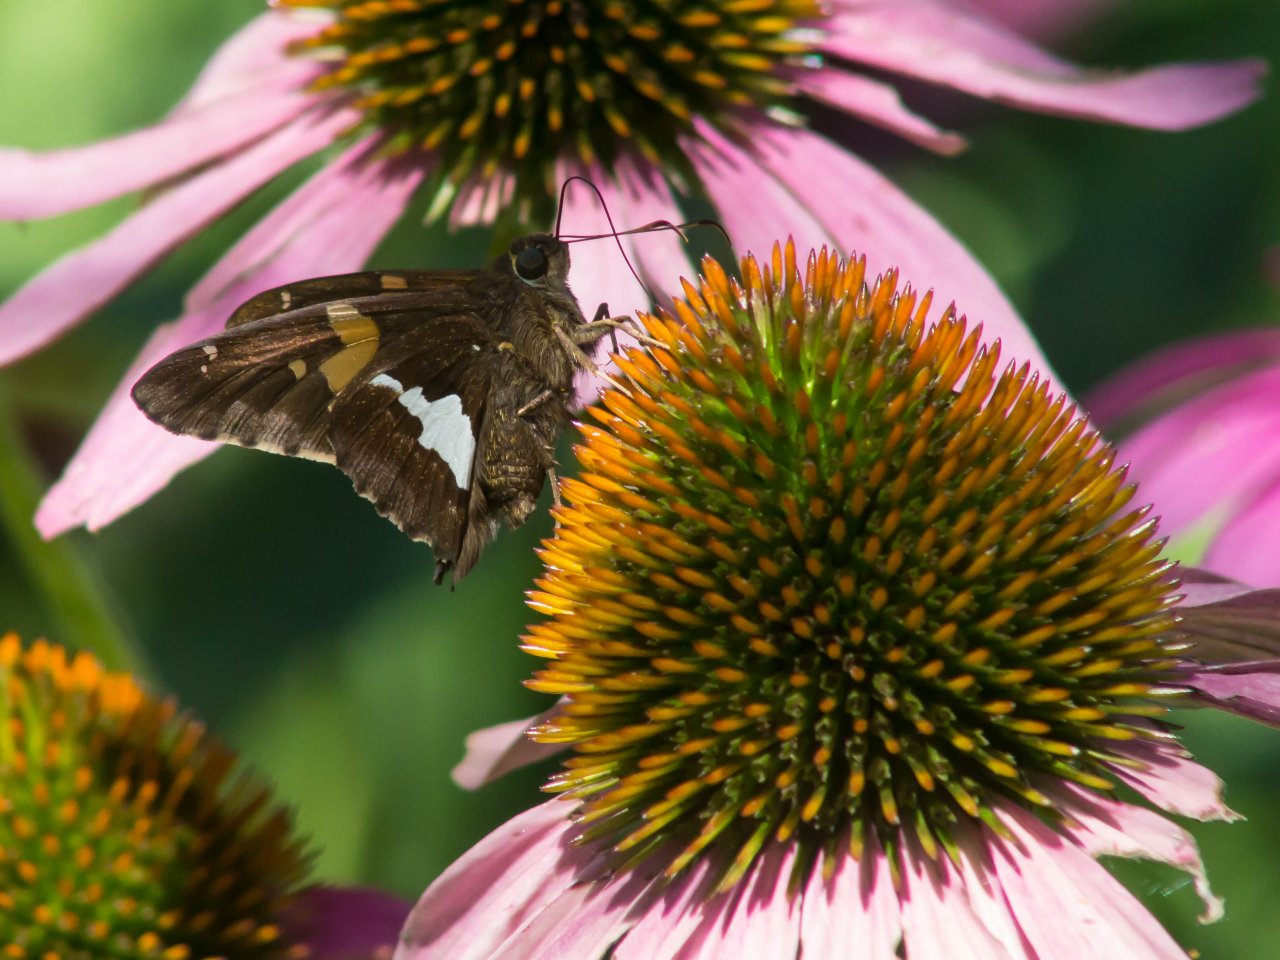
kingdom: Animalia
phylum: Arthropoda
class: Insecta
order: Lepidoptera
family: Hesperiidae
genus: Epargyreus
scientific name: Epargyreus clarus
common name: Silver-spotted Skipper
